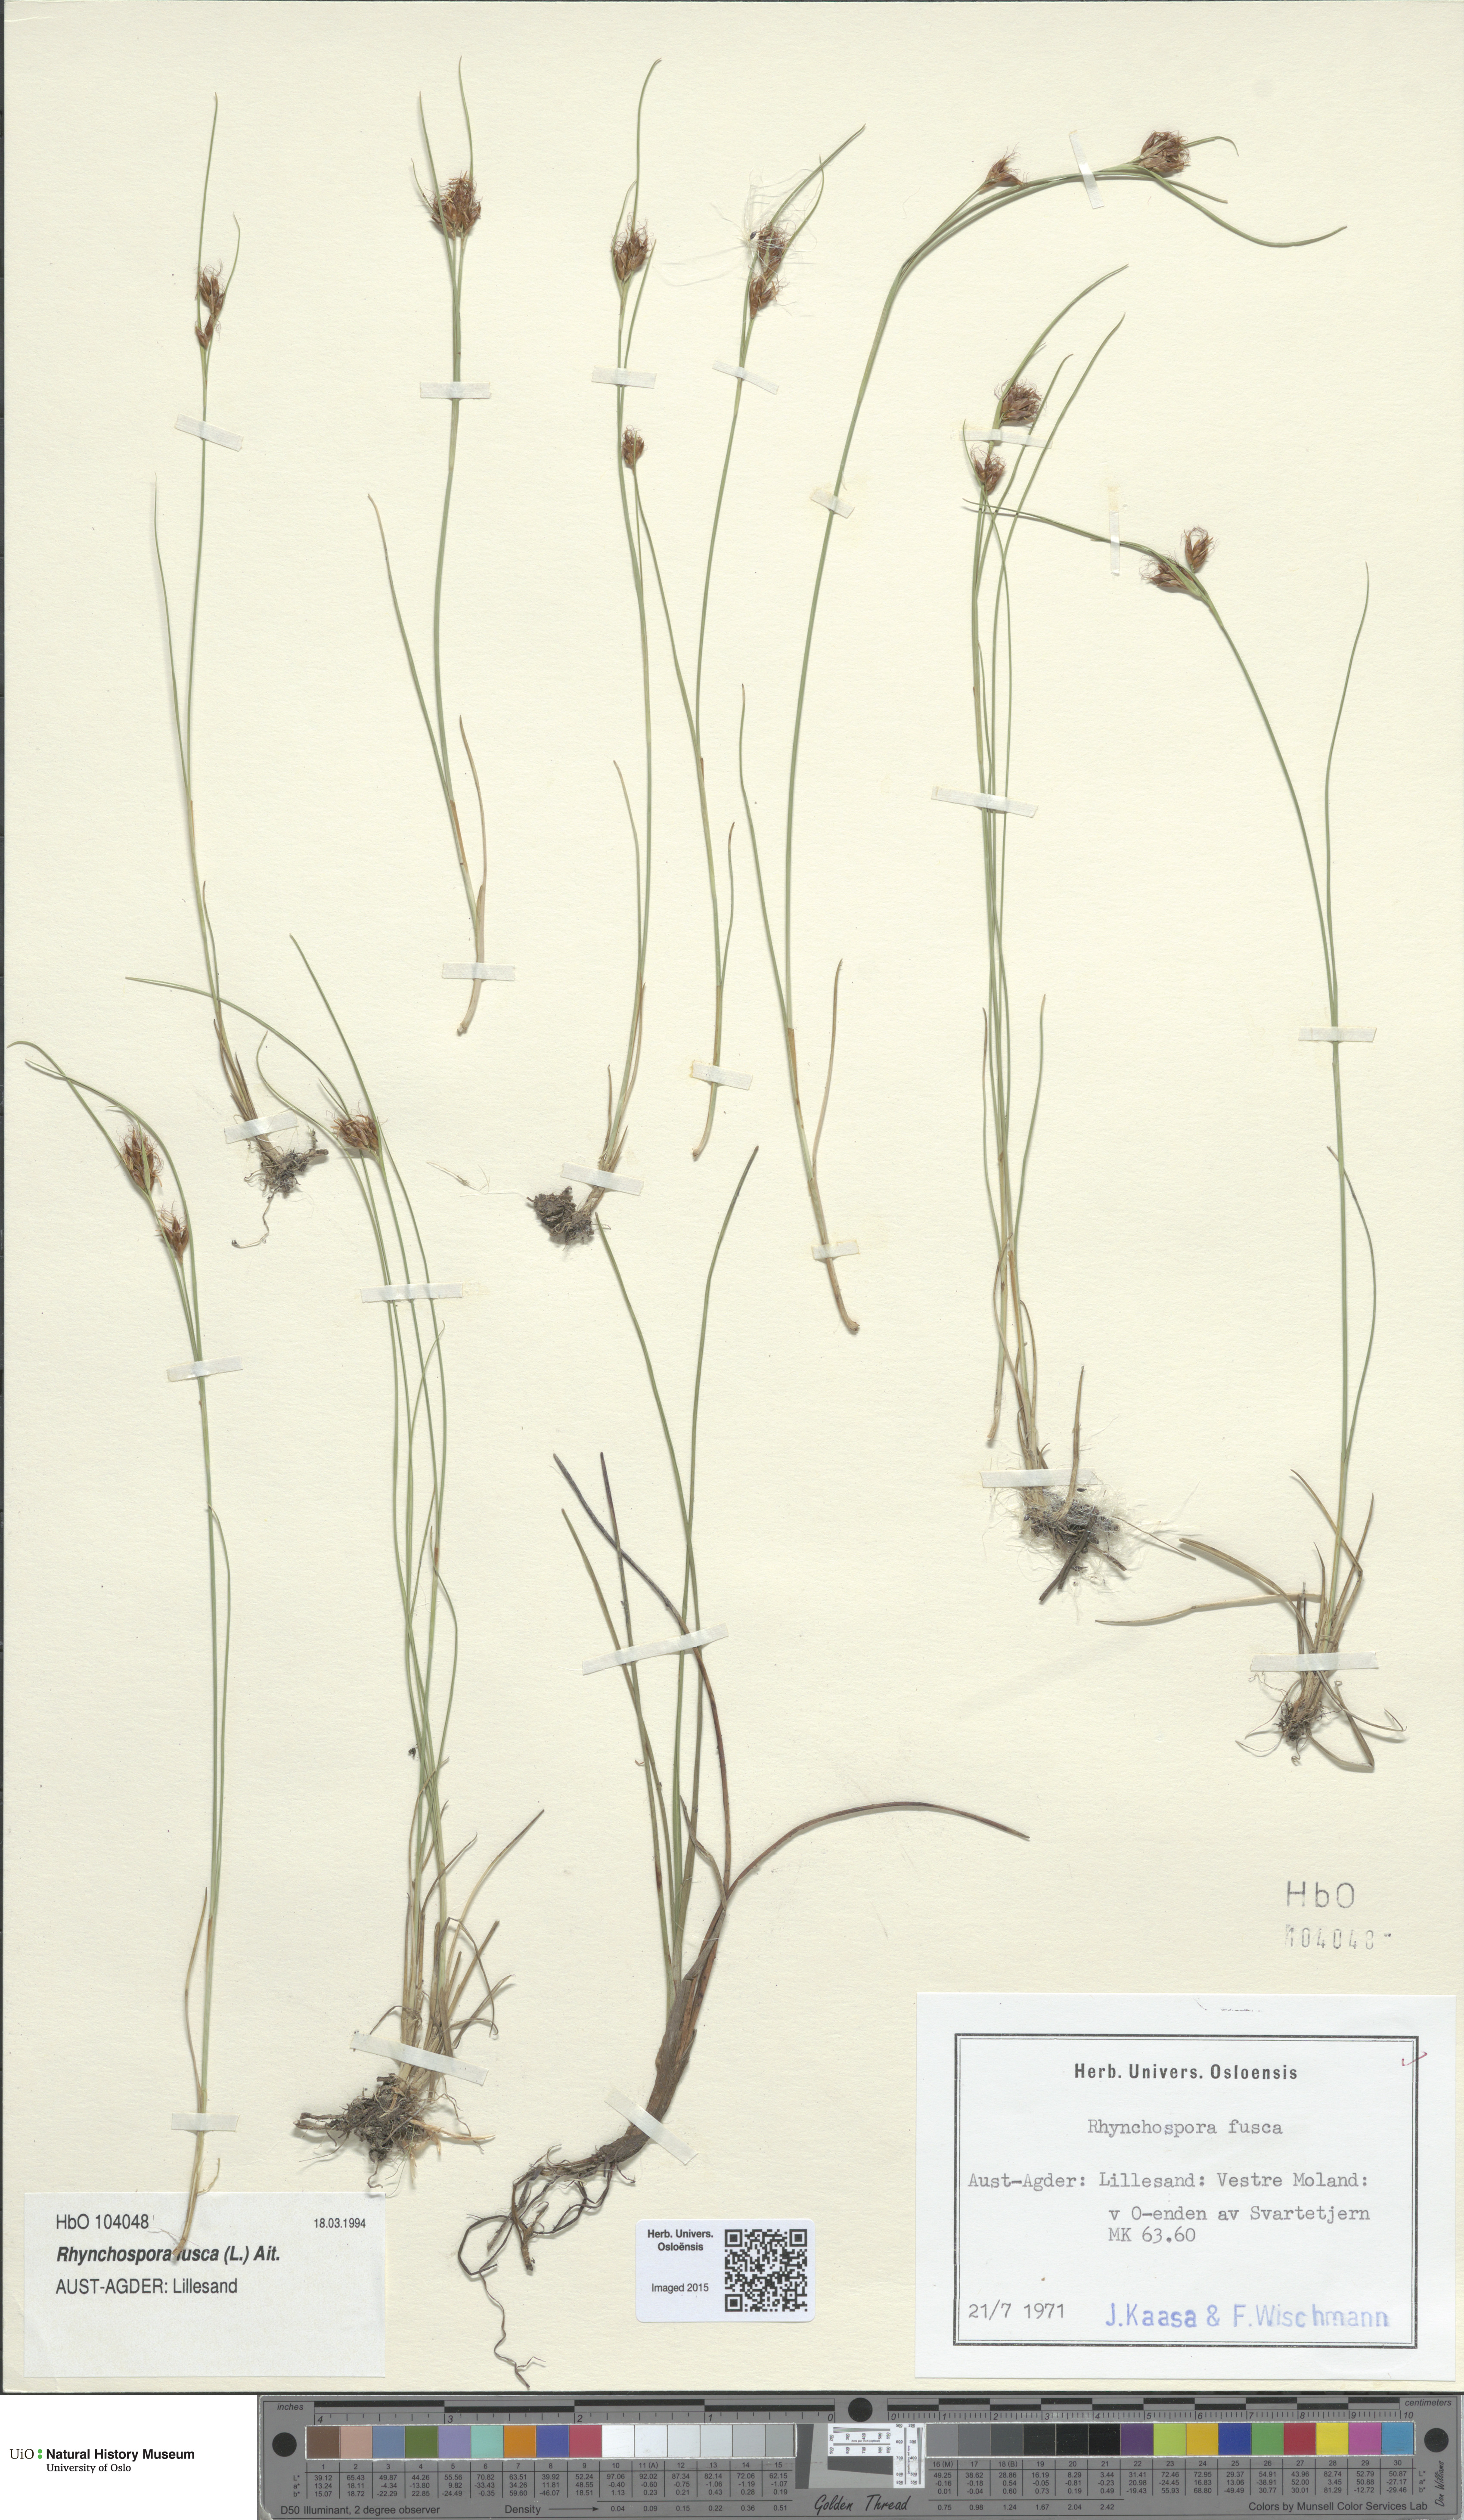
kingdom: Plantae
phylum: Tracheophyta
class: Liliopsida
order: Poales
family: Cyperaceae
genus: Rhynchospora
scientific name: Rhynchospora fusca
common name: Brown beak-sedge
